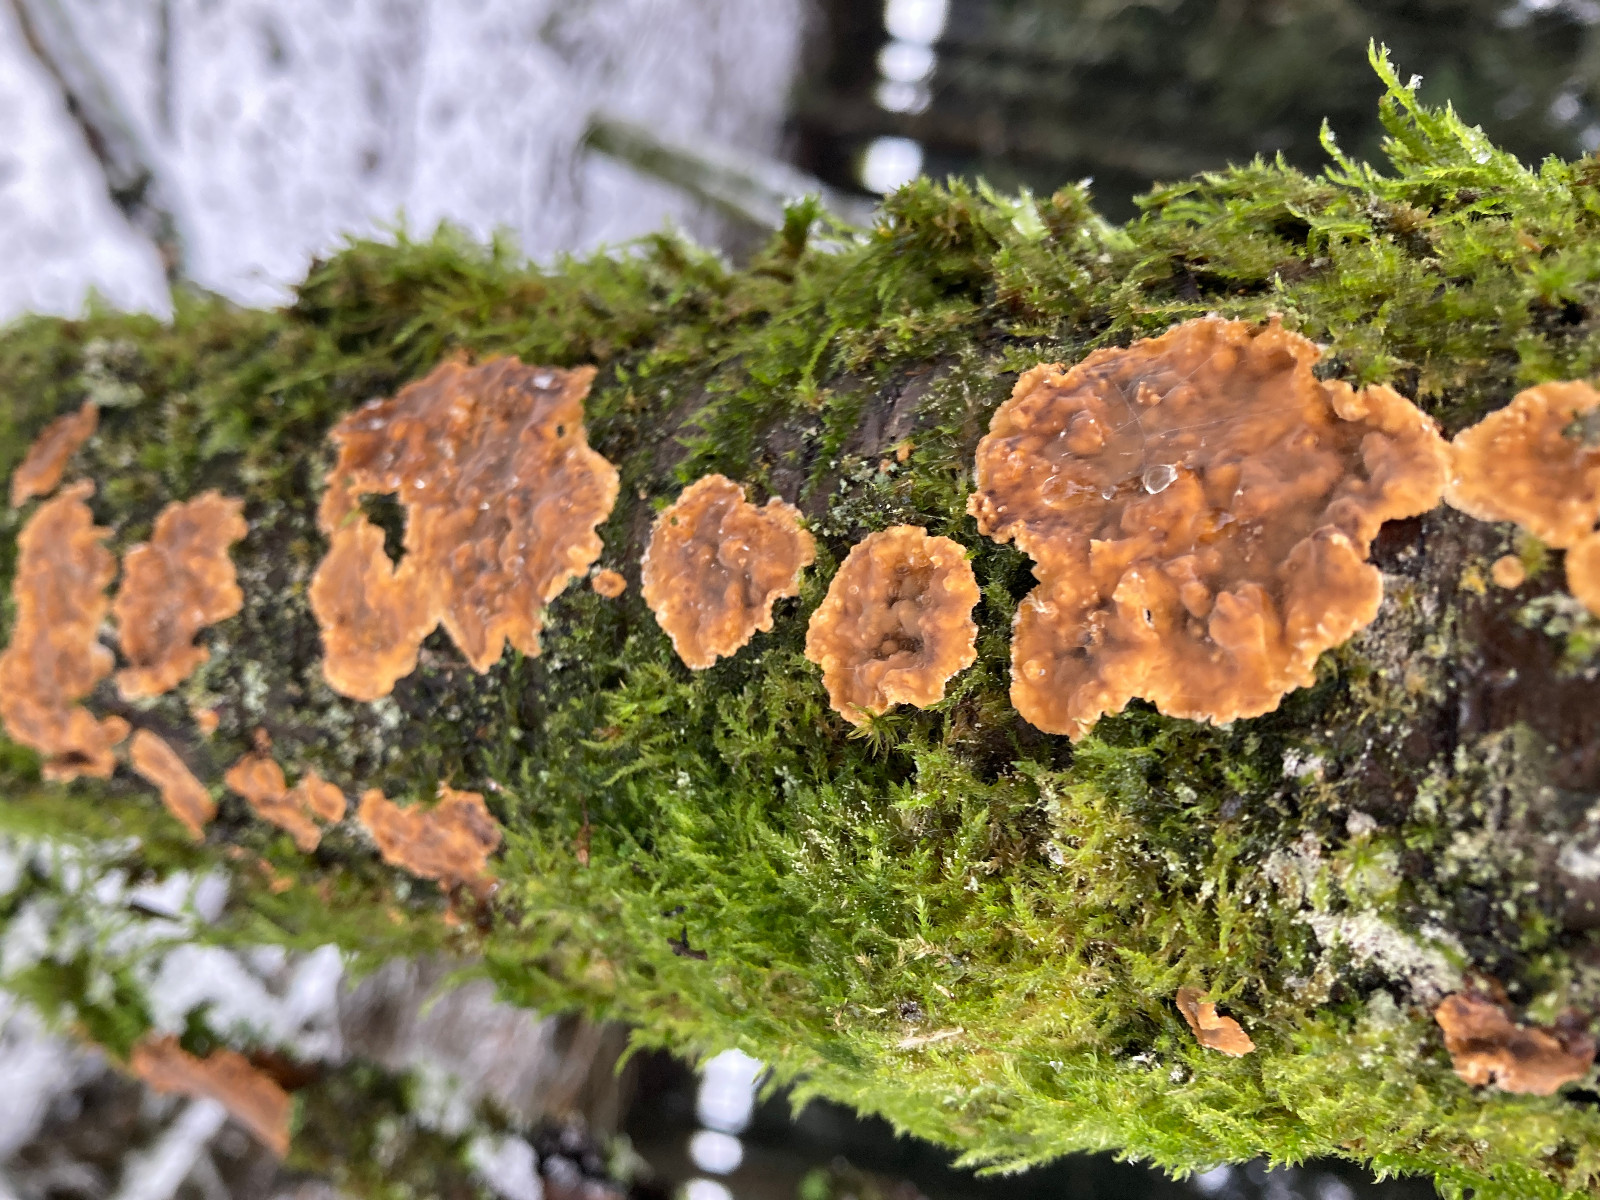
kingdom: Fungi
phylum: Basidiomycota
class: Agaricomycetes
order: Russulales
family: Stereaceae
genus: Stereum
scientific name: Stereum hirsutum
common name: håret lædersvamp
